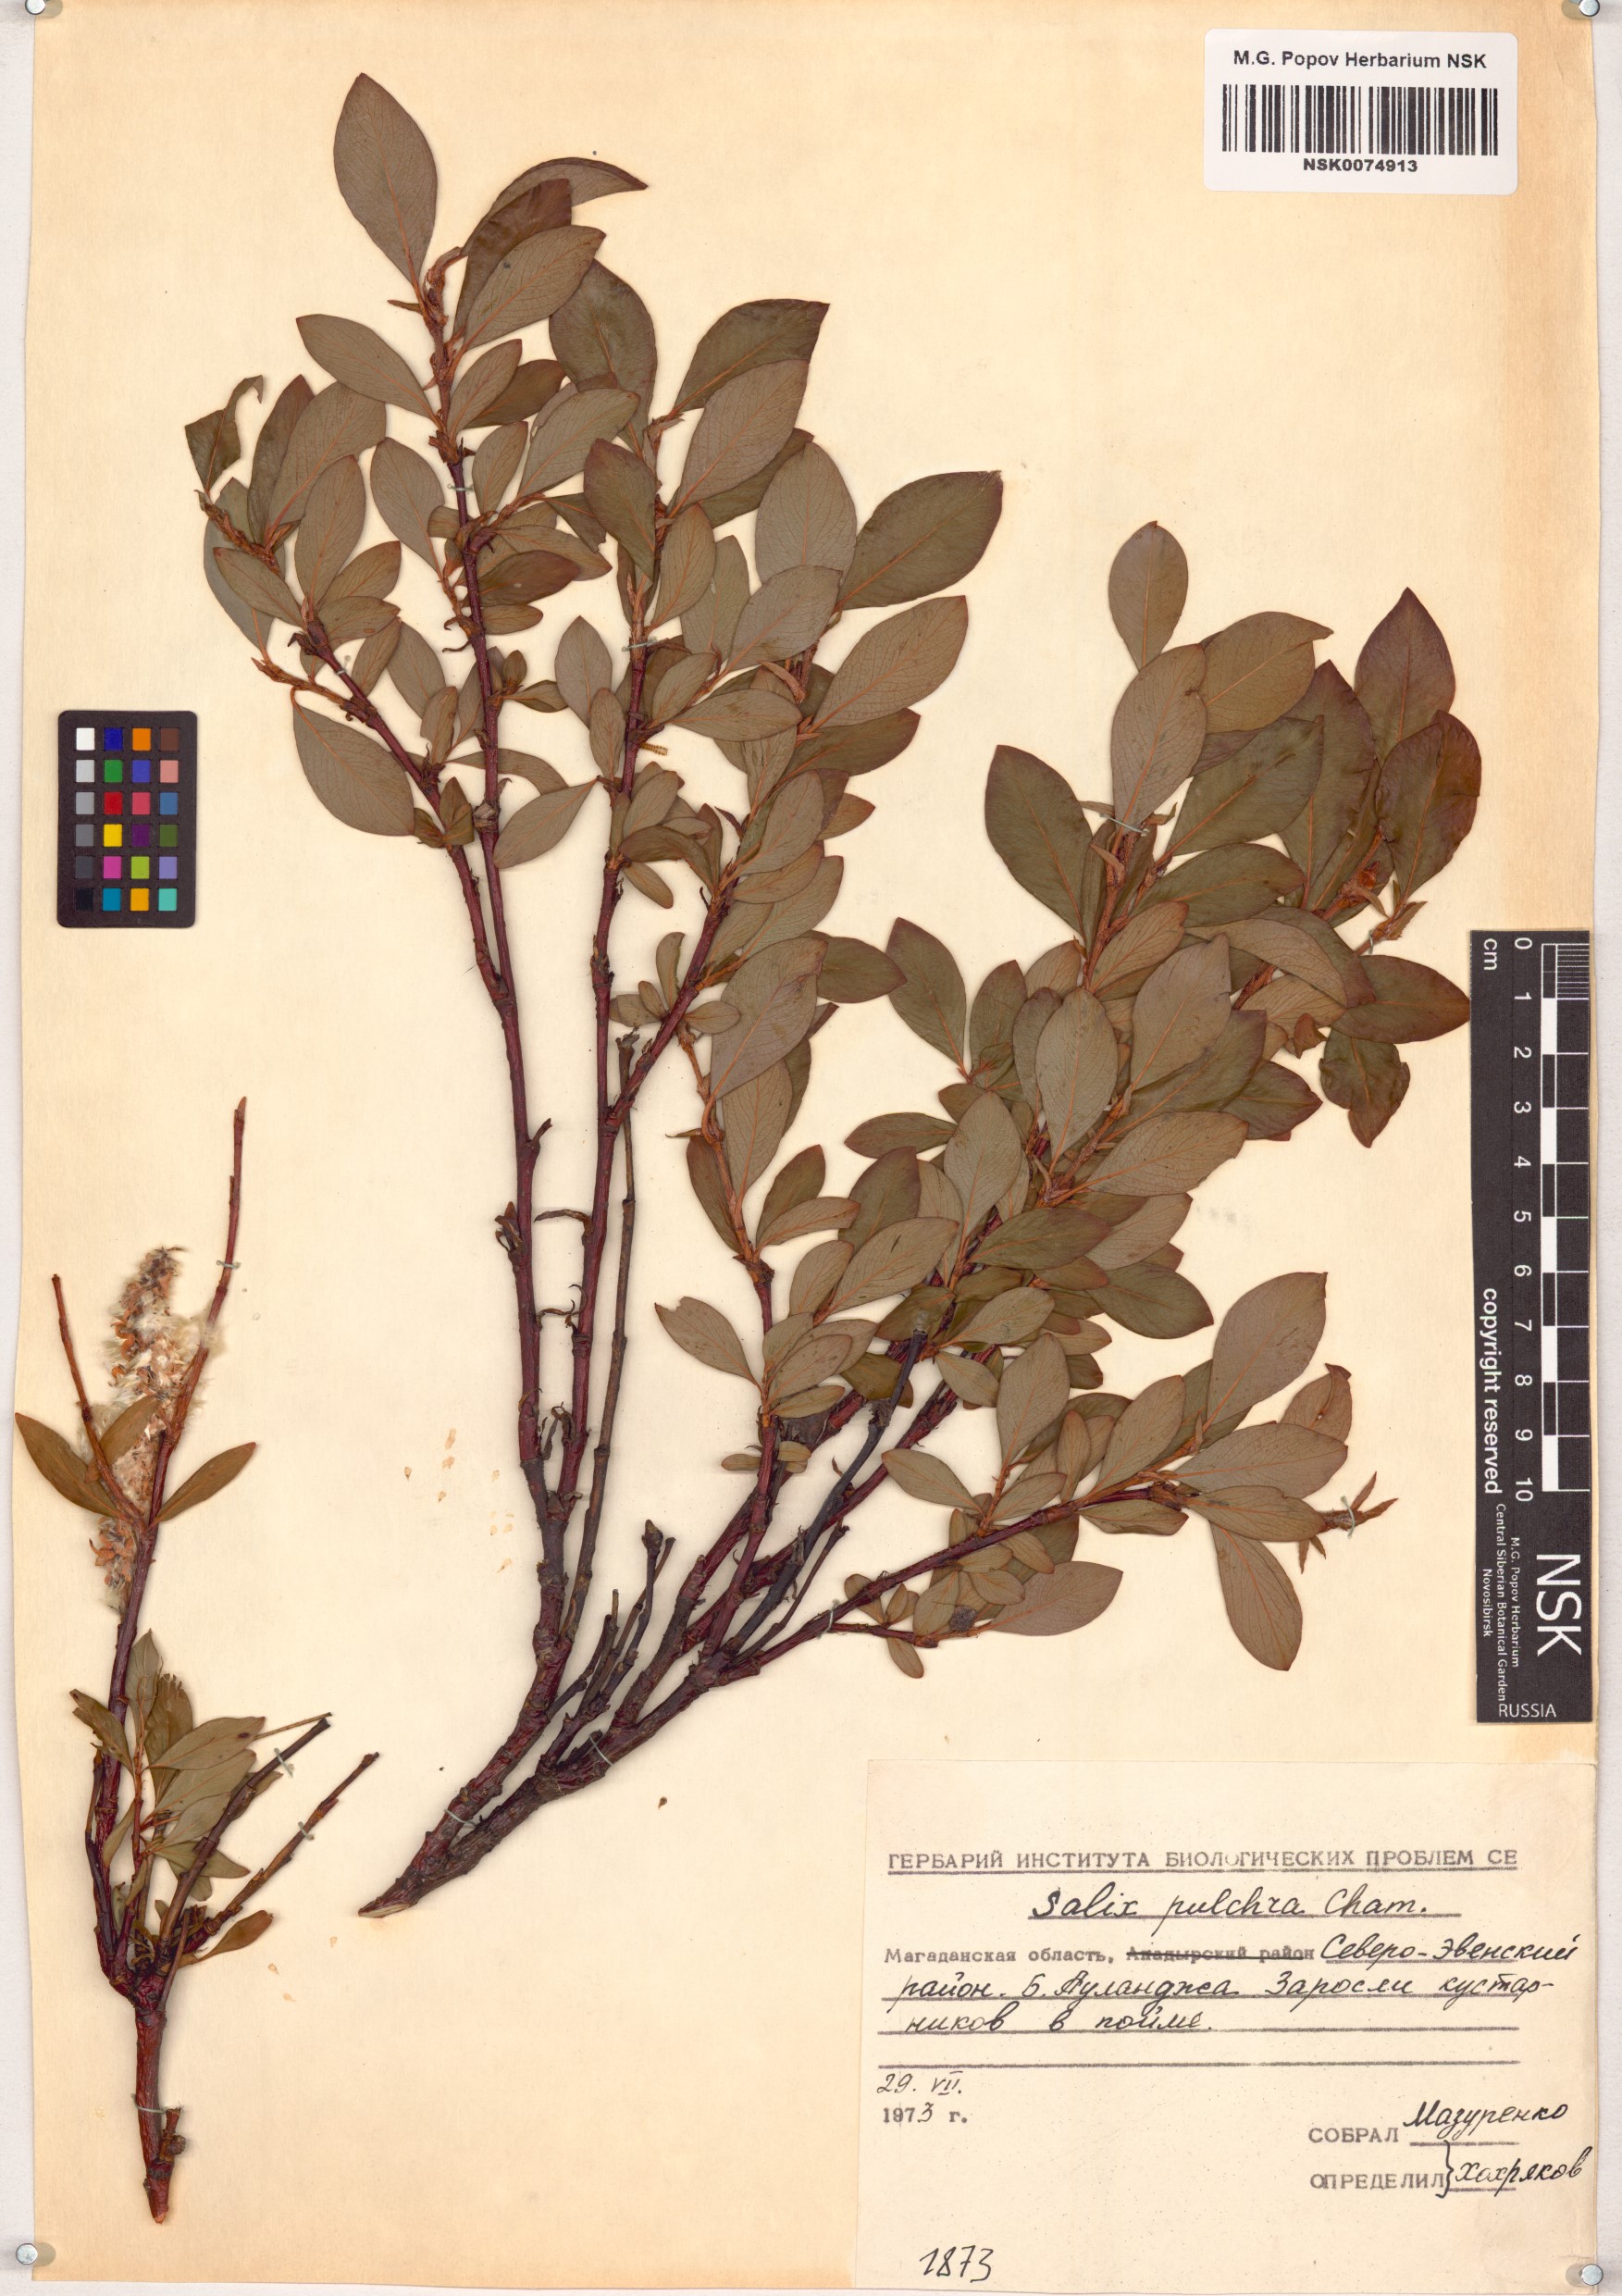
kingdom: Plantae
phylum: Tracheophyta
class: Magnoliopsida
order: Malpighiales
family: Salicaceae
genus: Salix
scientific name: Salix pulchra
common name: Diamond-leaved willow
